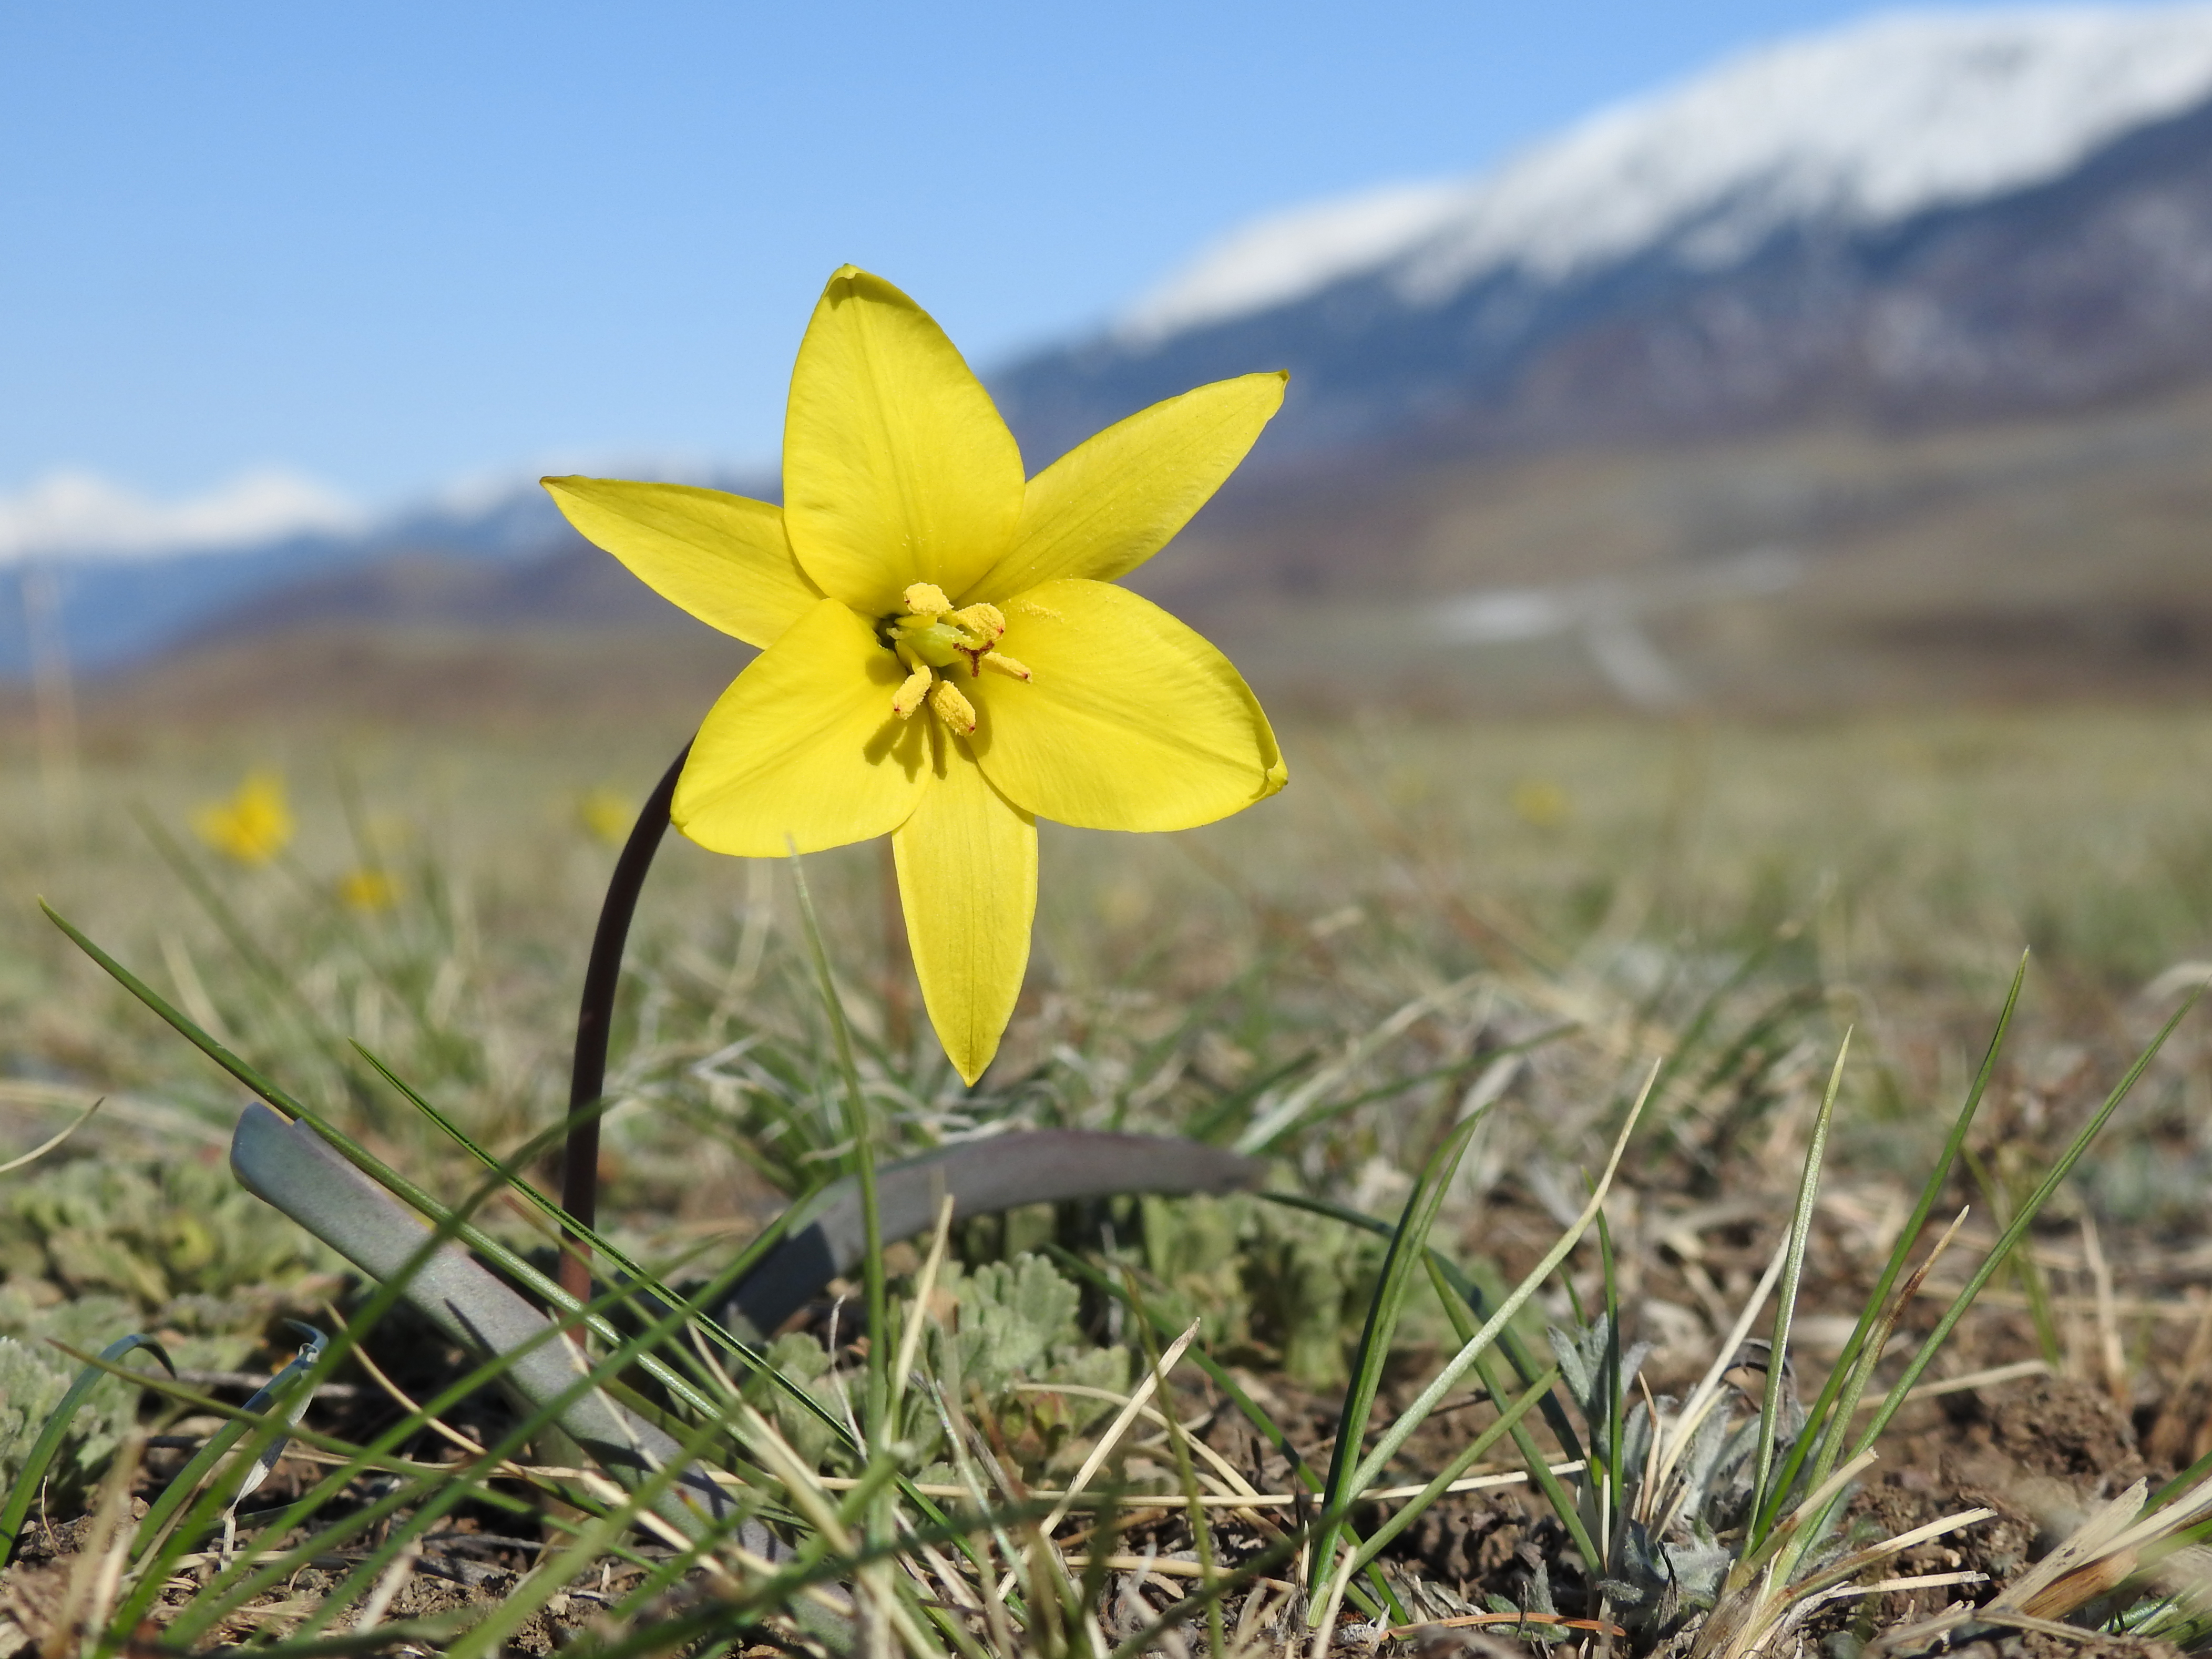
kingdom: Plantae
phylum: Tracheophyta
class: Liliopsida
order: Liliales
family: Liliaceae
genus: Tulipa
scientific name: Tulipa uniflora
